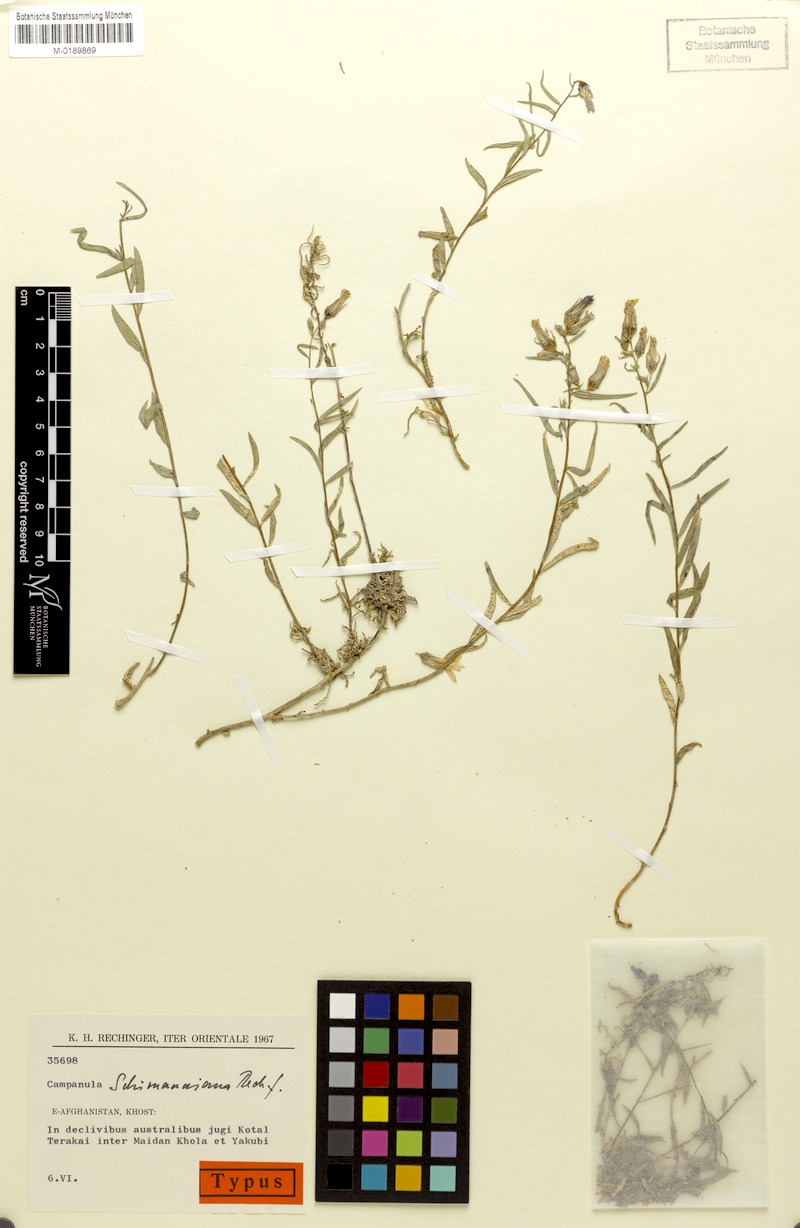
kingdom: Plantae
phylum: Tracheophyta
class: Magnoliopsida
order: Asterales
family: Campanulaceae
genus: Campanula
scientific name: Campanula schimaniana
